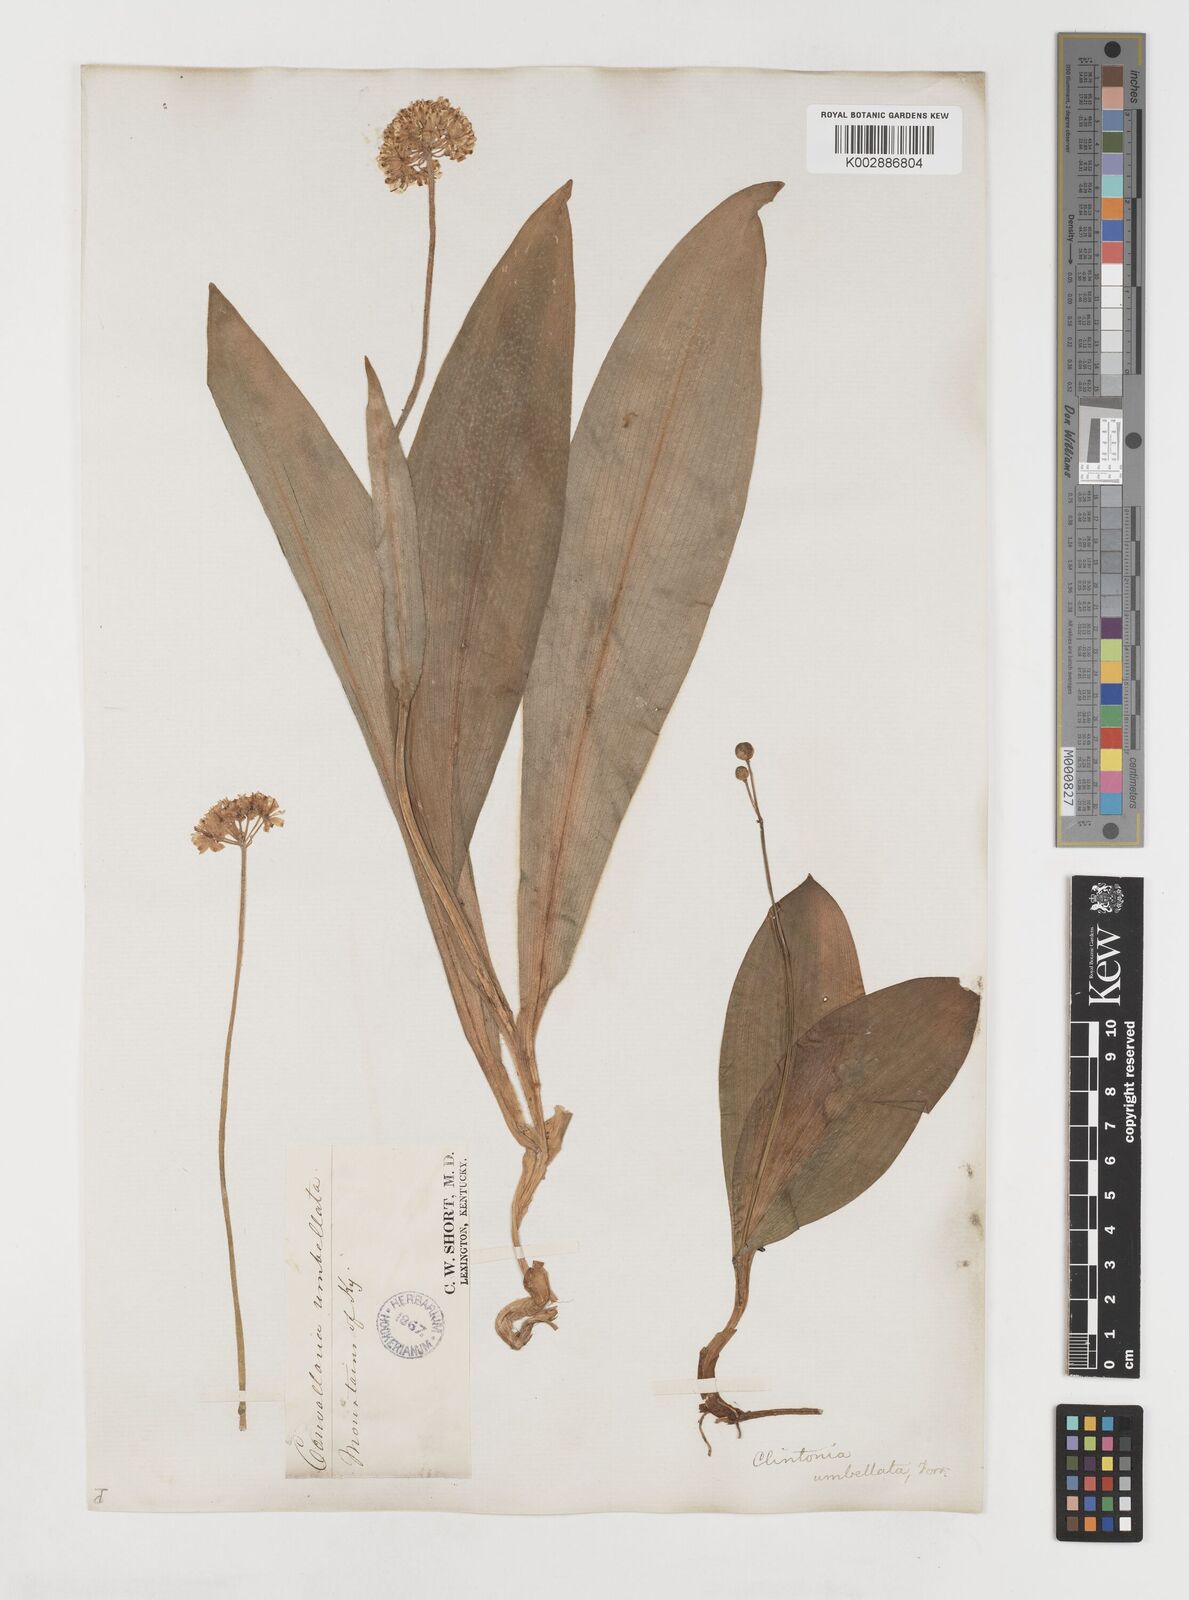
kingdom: Plantae
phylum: Tracheophyta
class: Liliopsida
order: Liliales
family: Liliaceae
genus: Clintonia
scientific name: Clintonia umbellulata
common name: Speckle wood-lily
